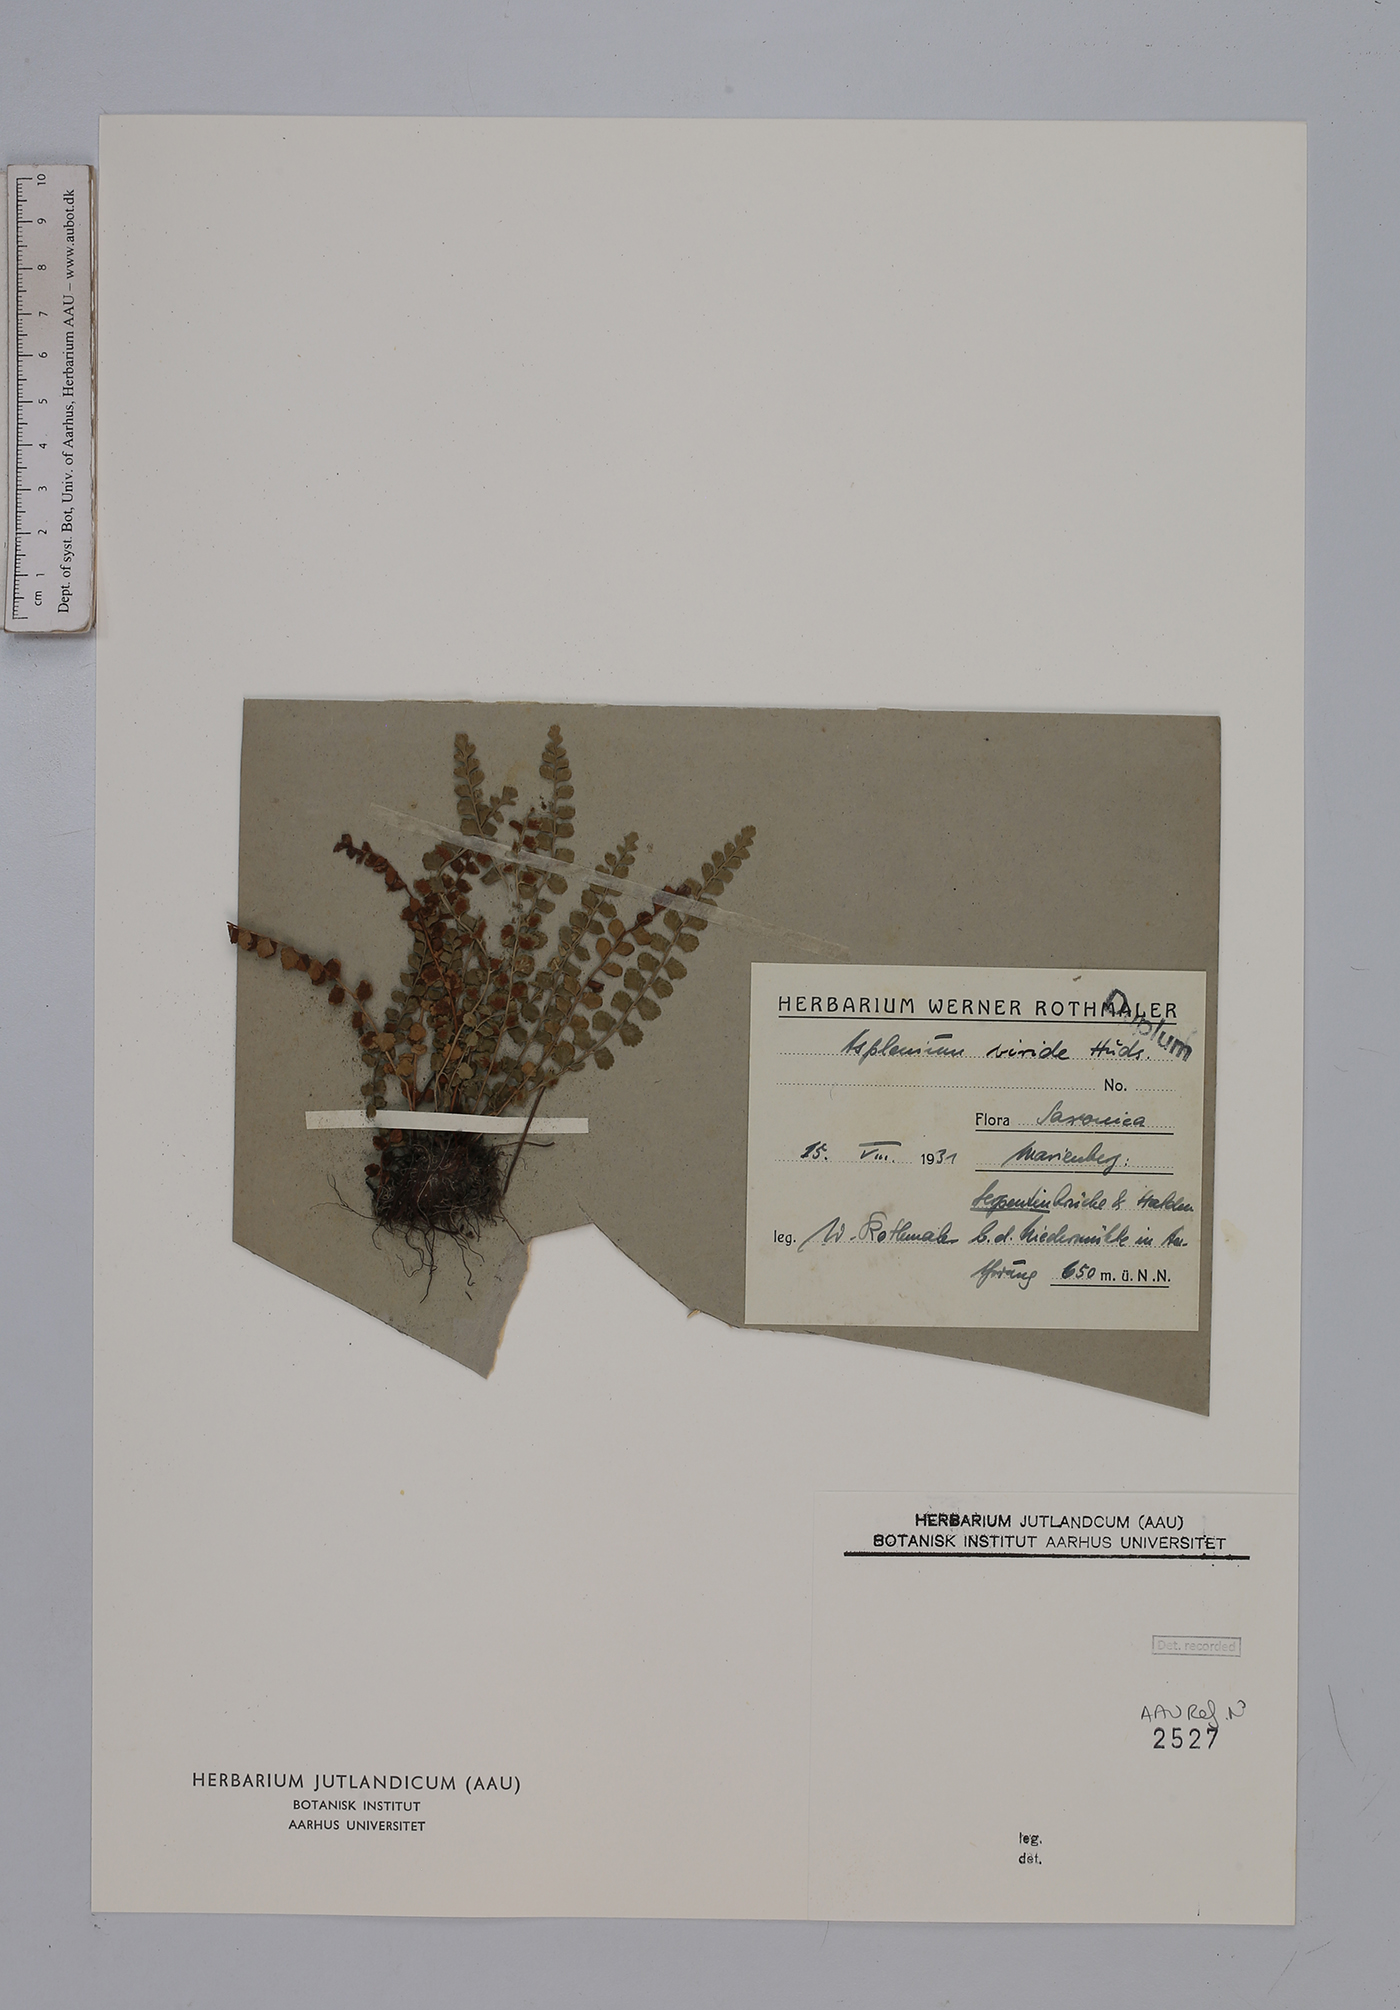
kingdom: Plantae
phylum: Tracheophyta
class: Polypodiopsida
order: Polypodiales
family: Aspleniaceae
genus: Asplenium
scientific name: Asplenium viride
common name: Green spleenwort
